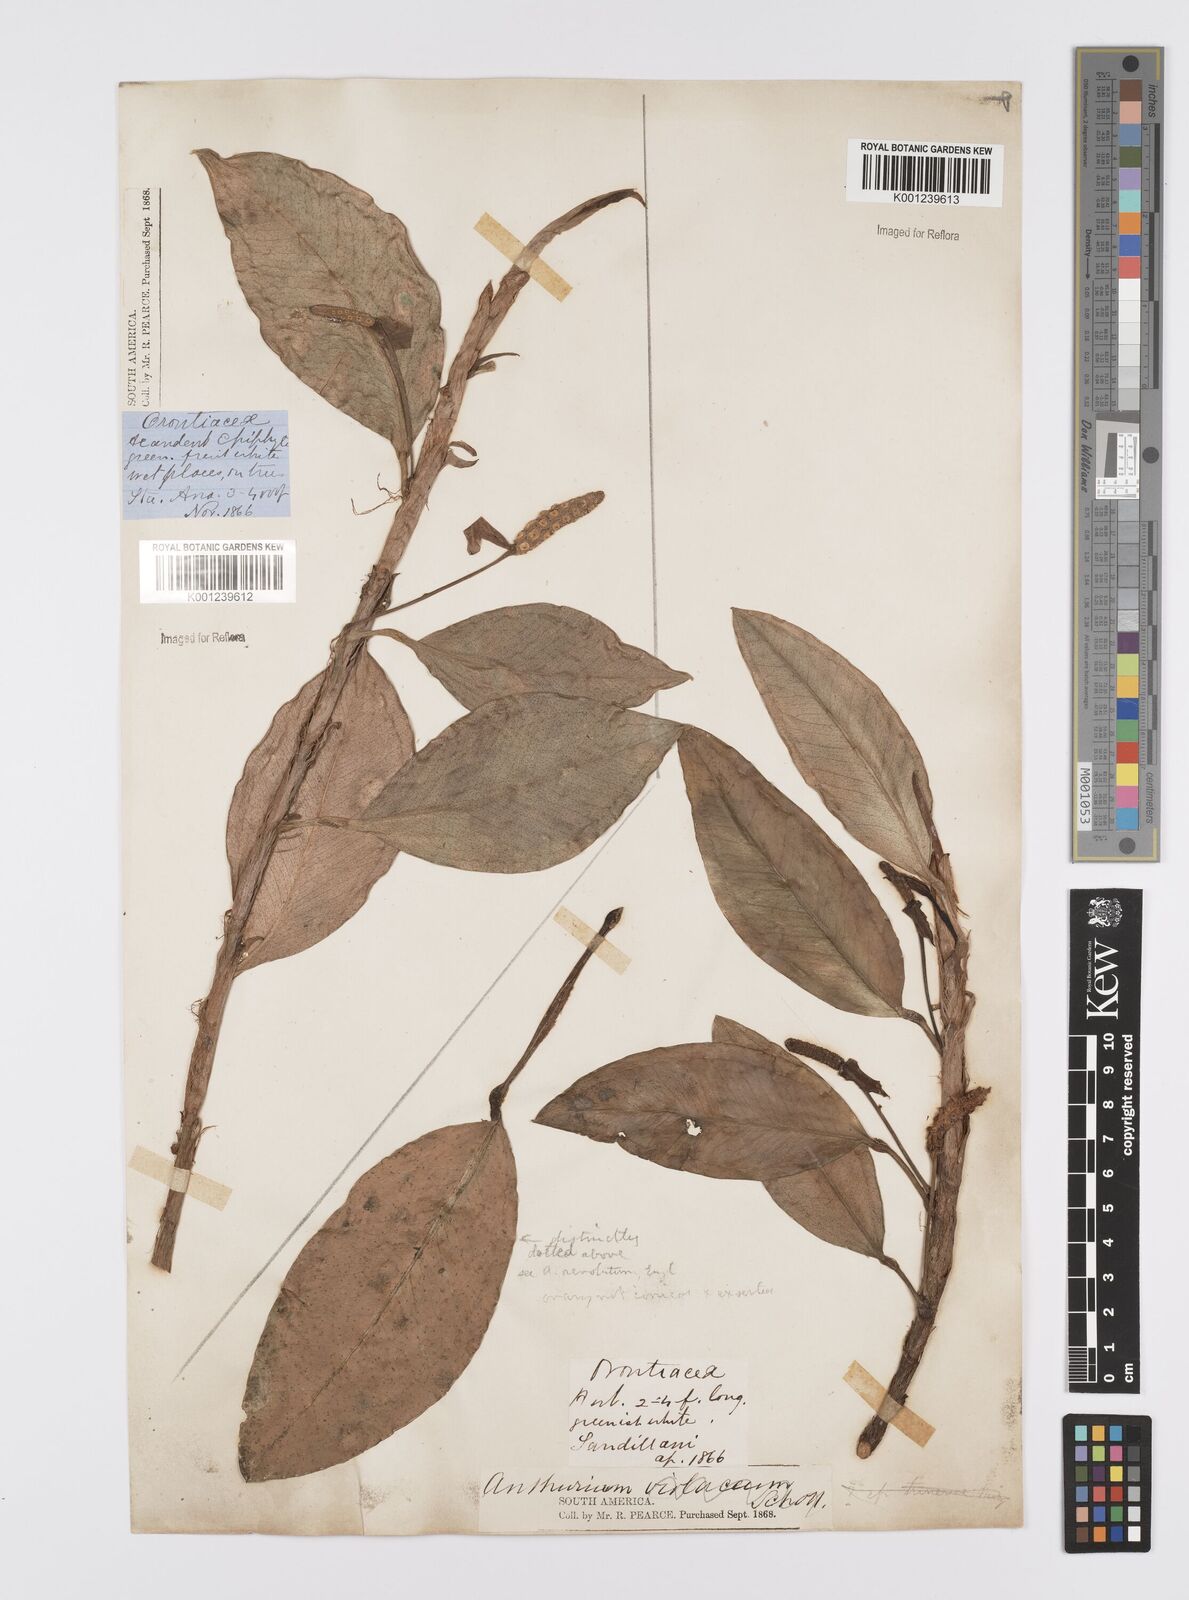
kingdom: Plantae
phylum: Tracheophyta
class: Liliopsida
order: Alismatales
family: Araceae
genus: Anthurium
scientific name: Anthurium scandens
